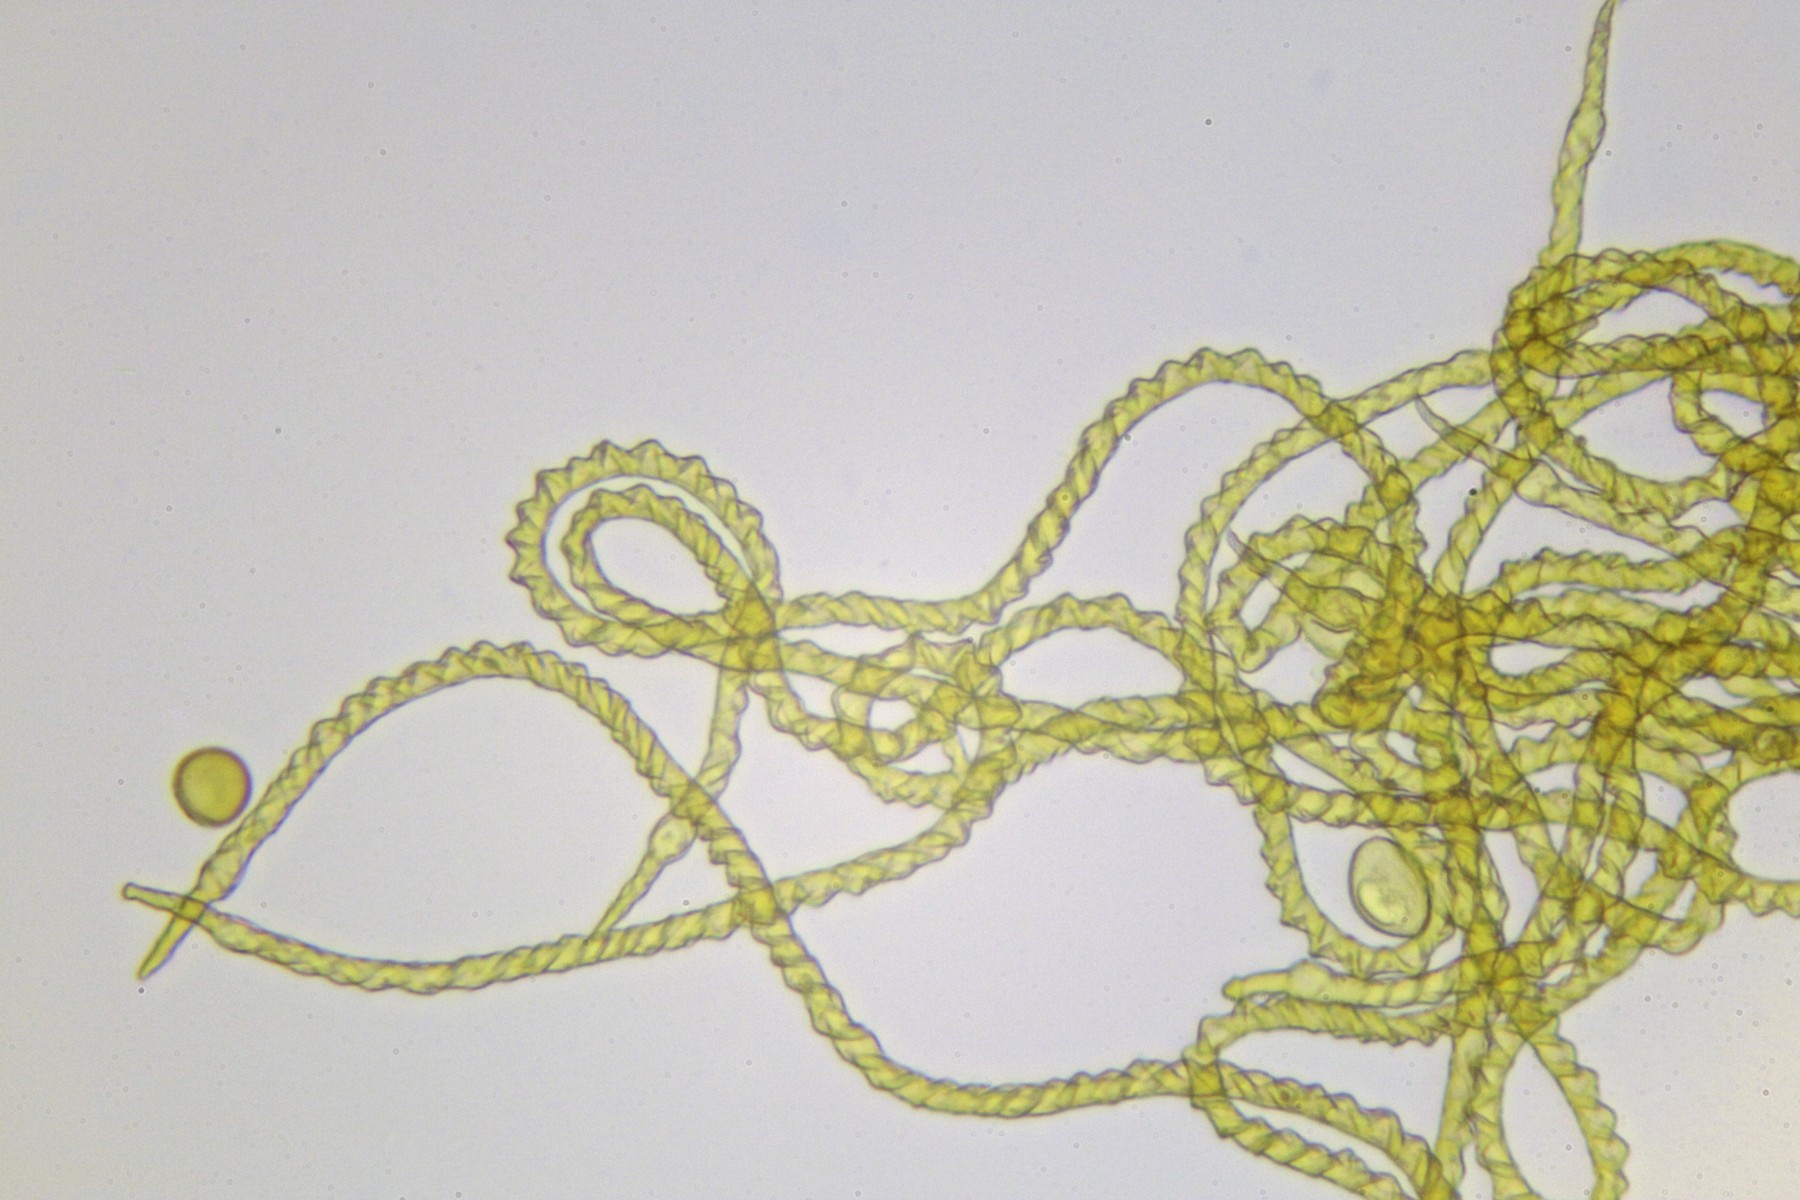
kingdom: Protozoa
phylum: Mycetozoa
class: Myxomycetes
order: Trichiales
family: Trichiaceae
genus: Trichia
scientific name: Trichia varia
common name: foranderlig hårbold
